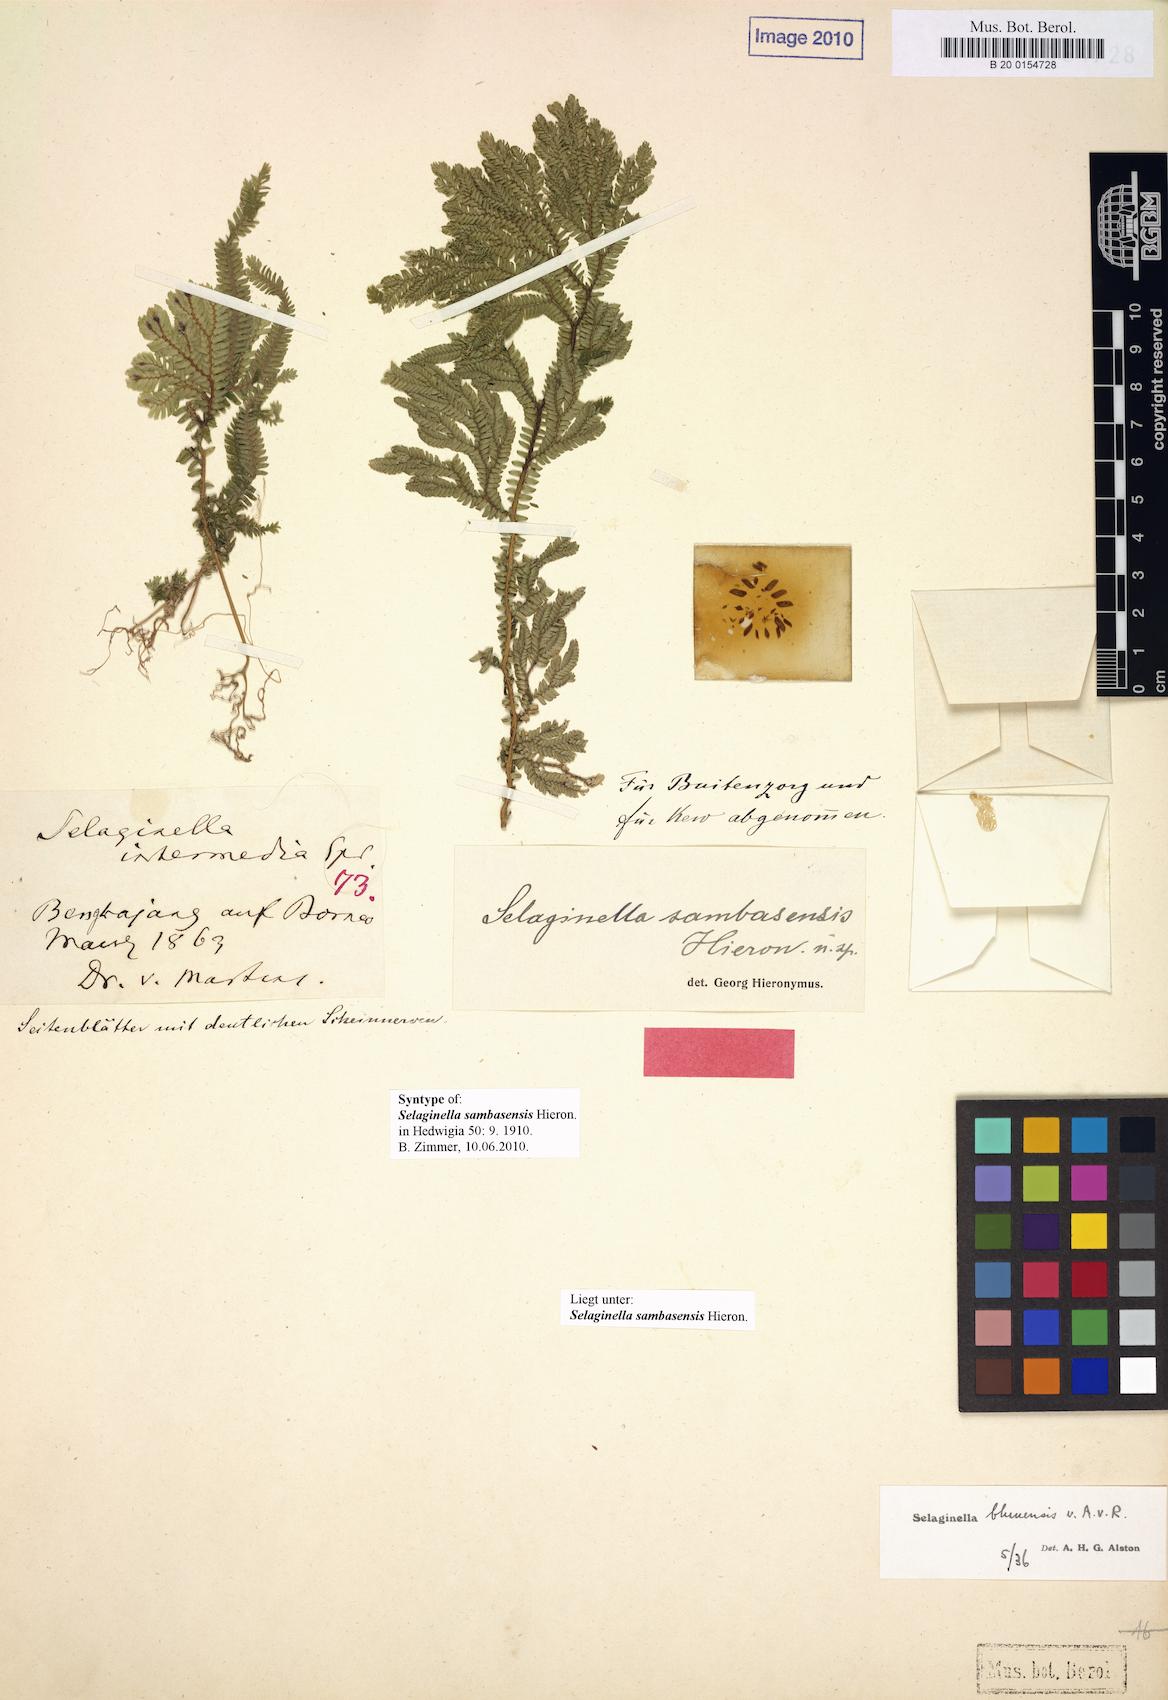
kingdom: Plantae
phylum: Tracheophyta
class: Lycopodiopsida
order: Selaginellales
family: Selaginellaceae
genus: Selaginella
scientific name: Selaginella sambasensis
